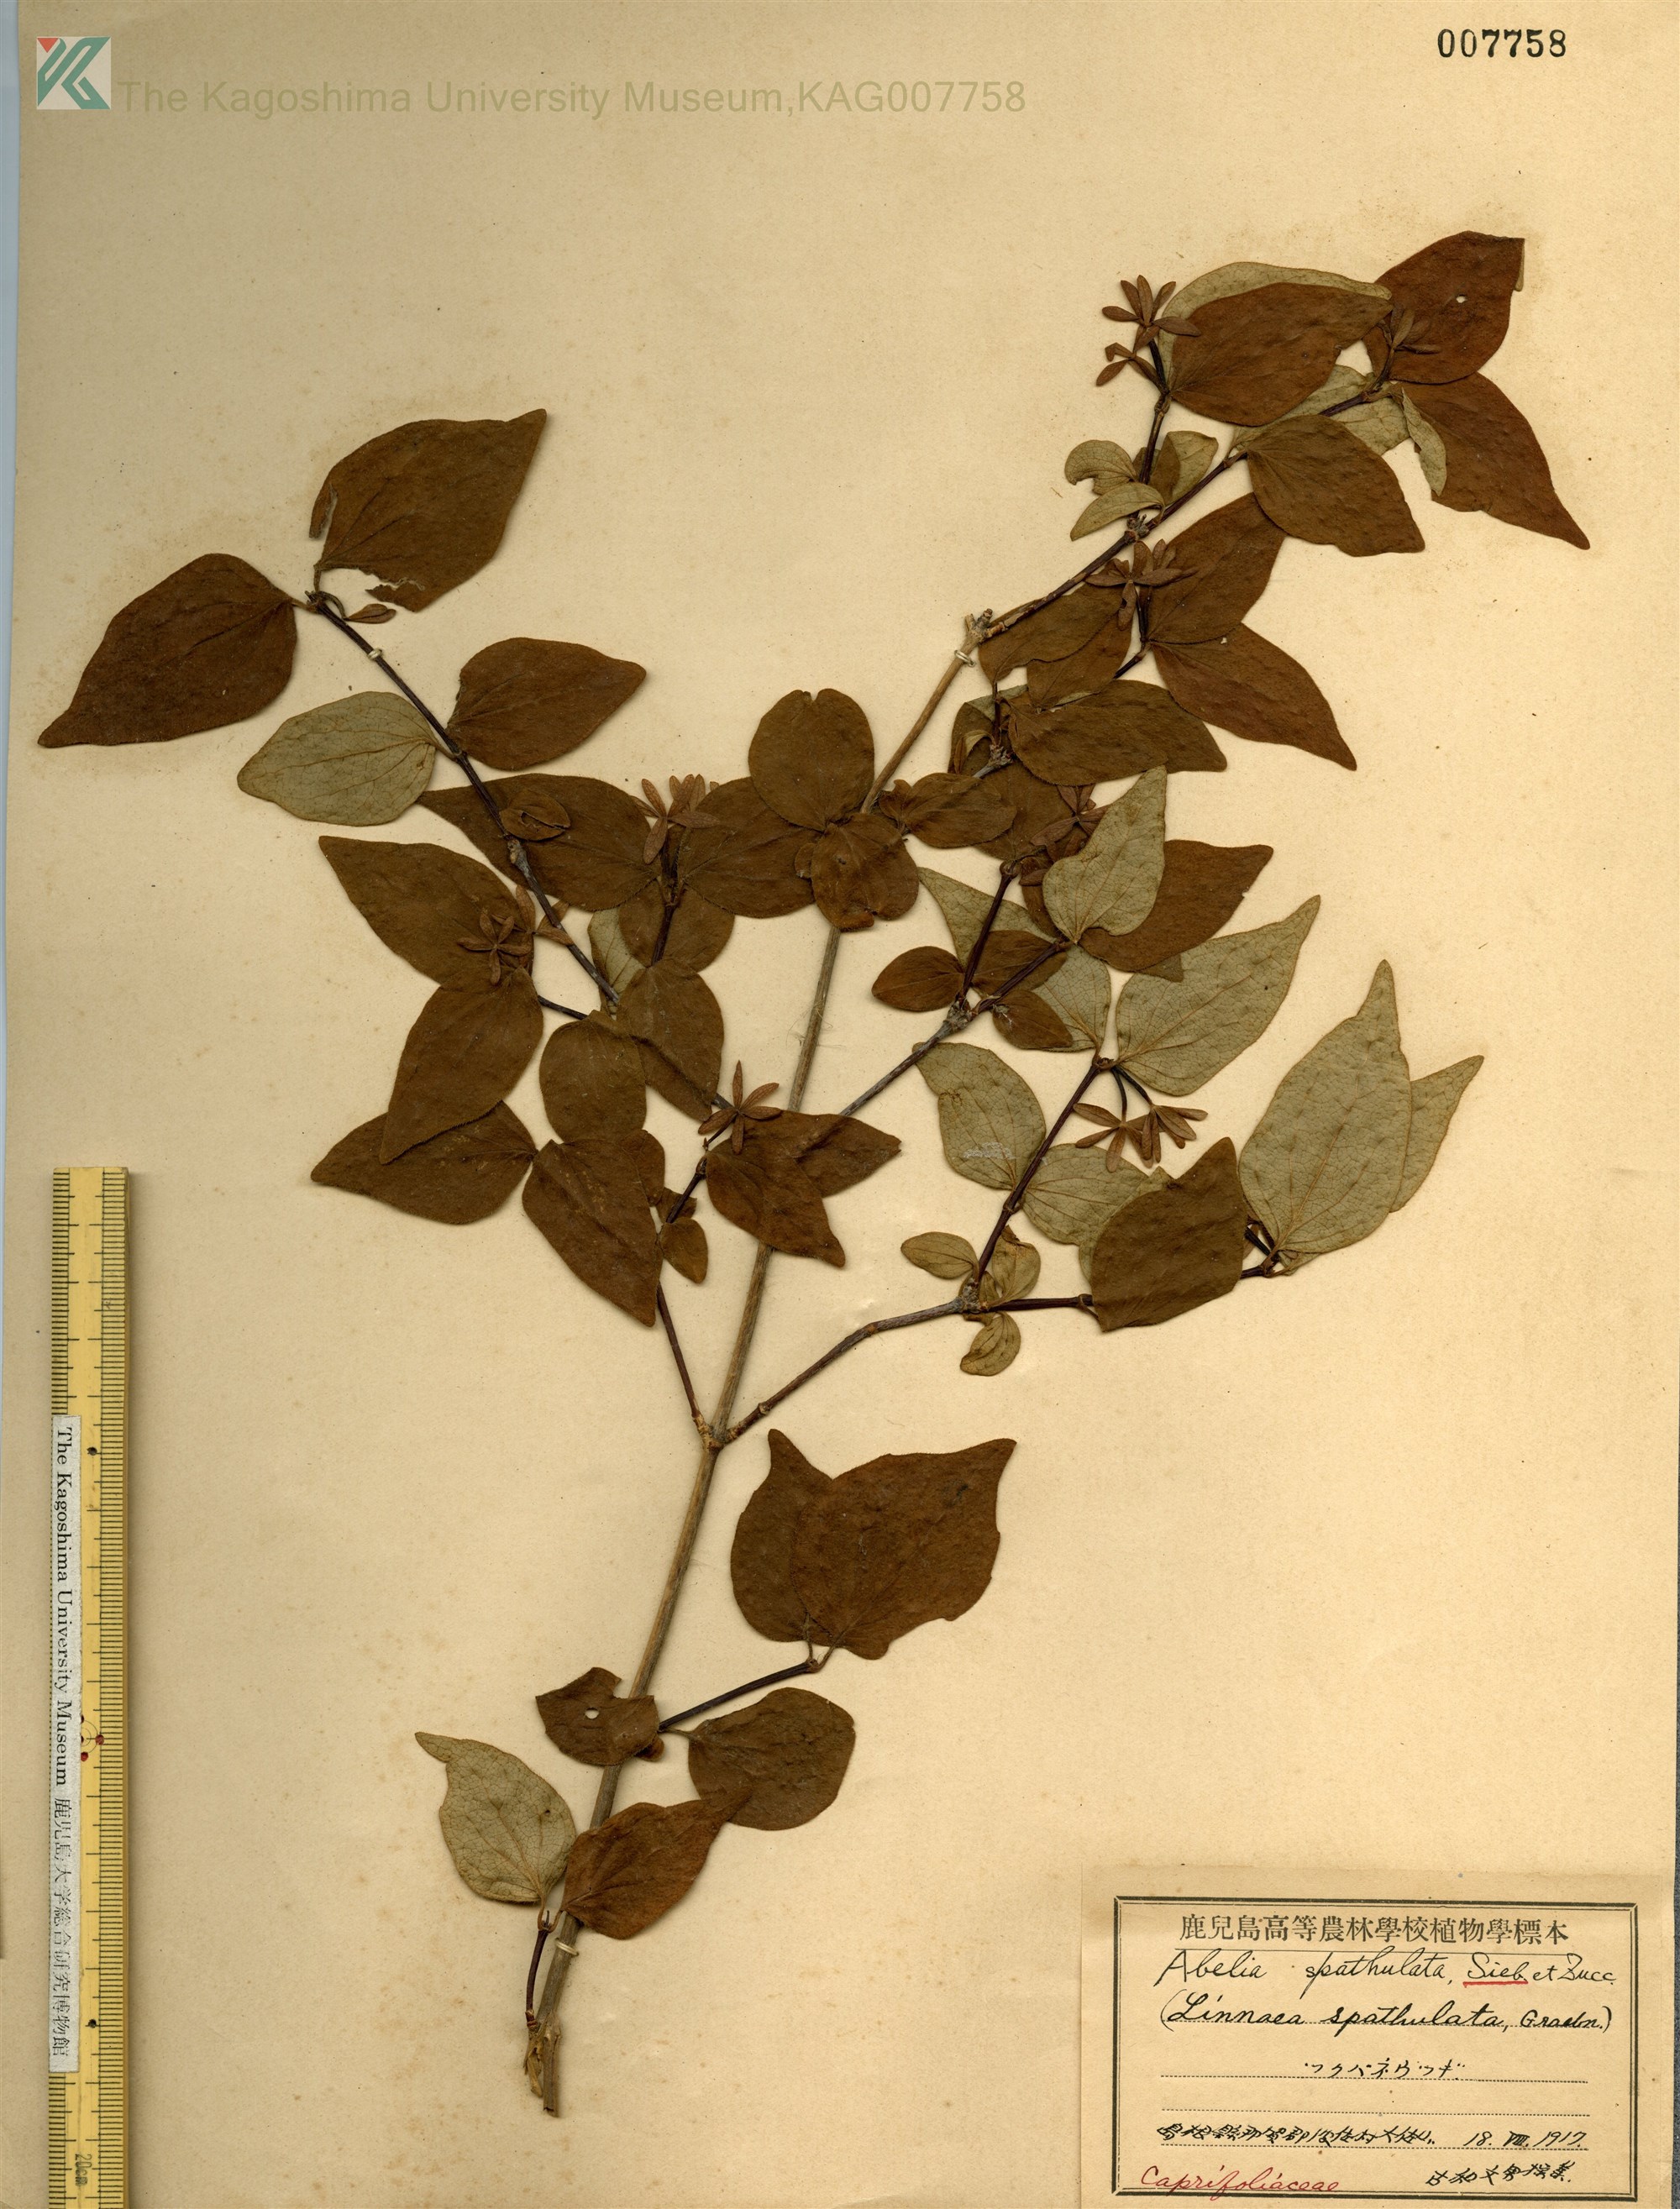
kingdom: Plantae
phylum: Tracheophyta
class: Magnoliopsida
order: Dipsacales
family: Caprifoliaceae
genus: Diabelia
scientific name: Diabelia spathulata
